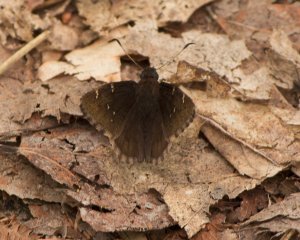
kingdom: Animalia
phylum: Arthropoda
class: Insecta
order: Lepidoptera
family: Hesperiidae
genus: Autochton
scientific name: Autochton
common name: Northern Cloudywing
